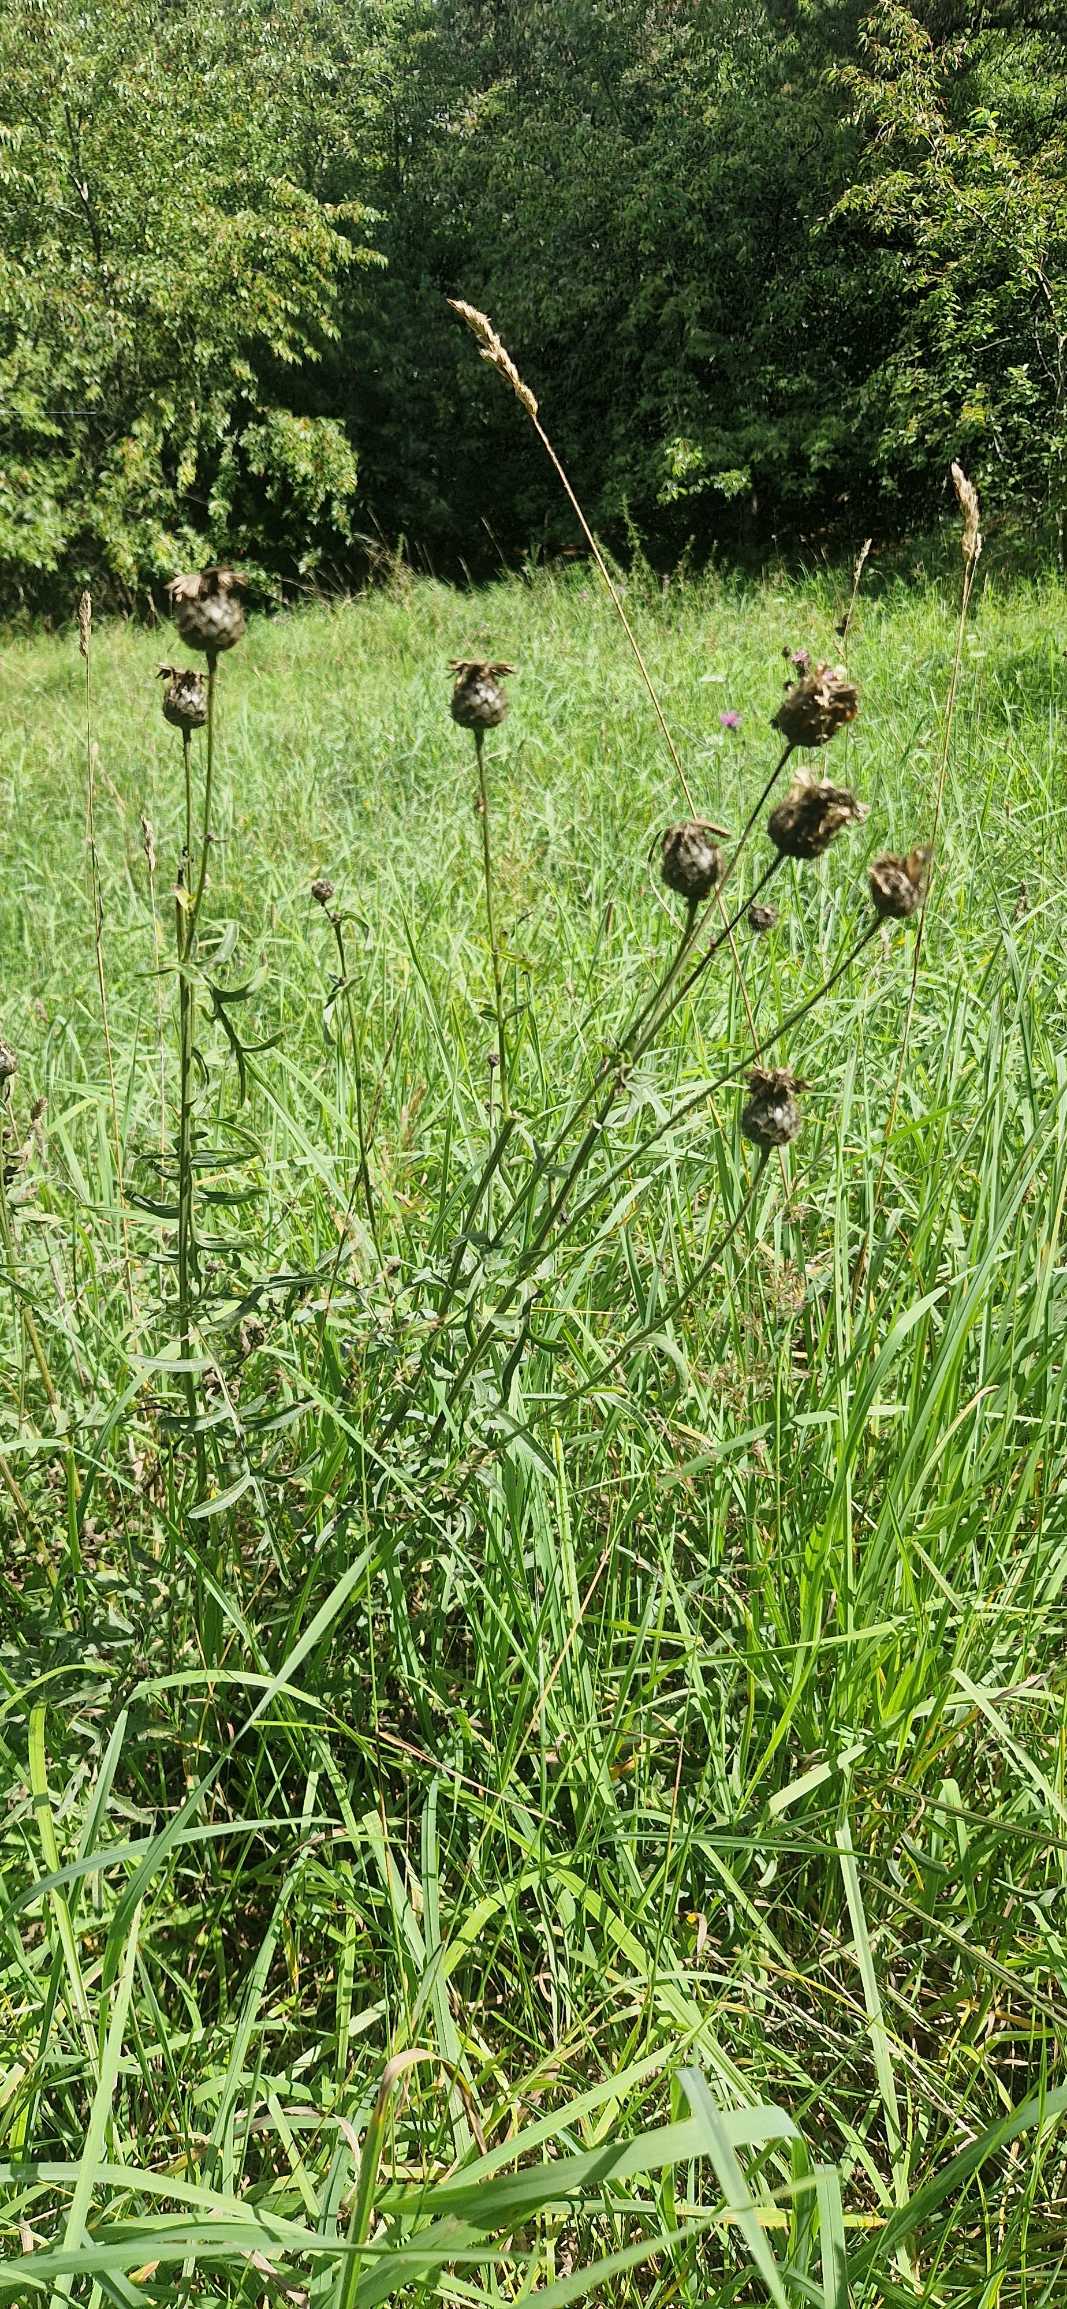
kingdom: Plantae
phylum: Tracheophyta
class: Magnoliopsida
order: Asterales
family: Asteraceae
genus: Centaurea
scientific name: Centaurea scabiosa
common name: Stor knopurt
